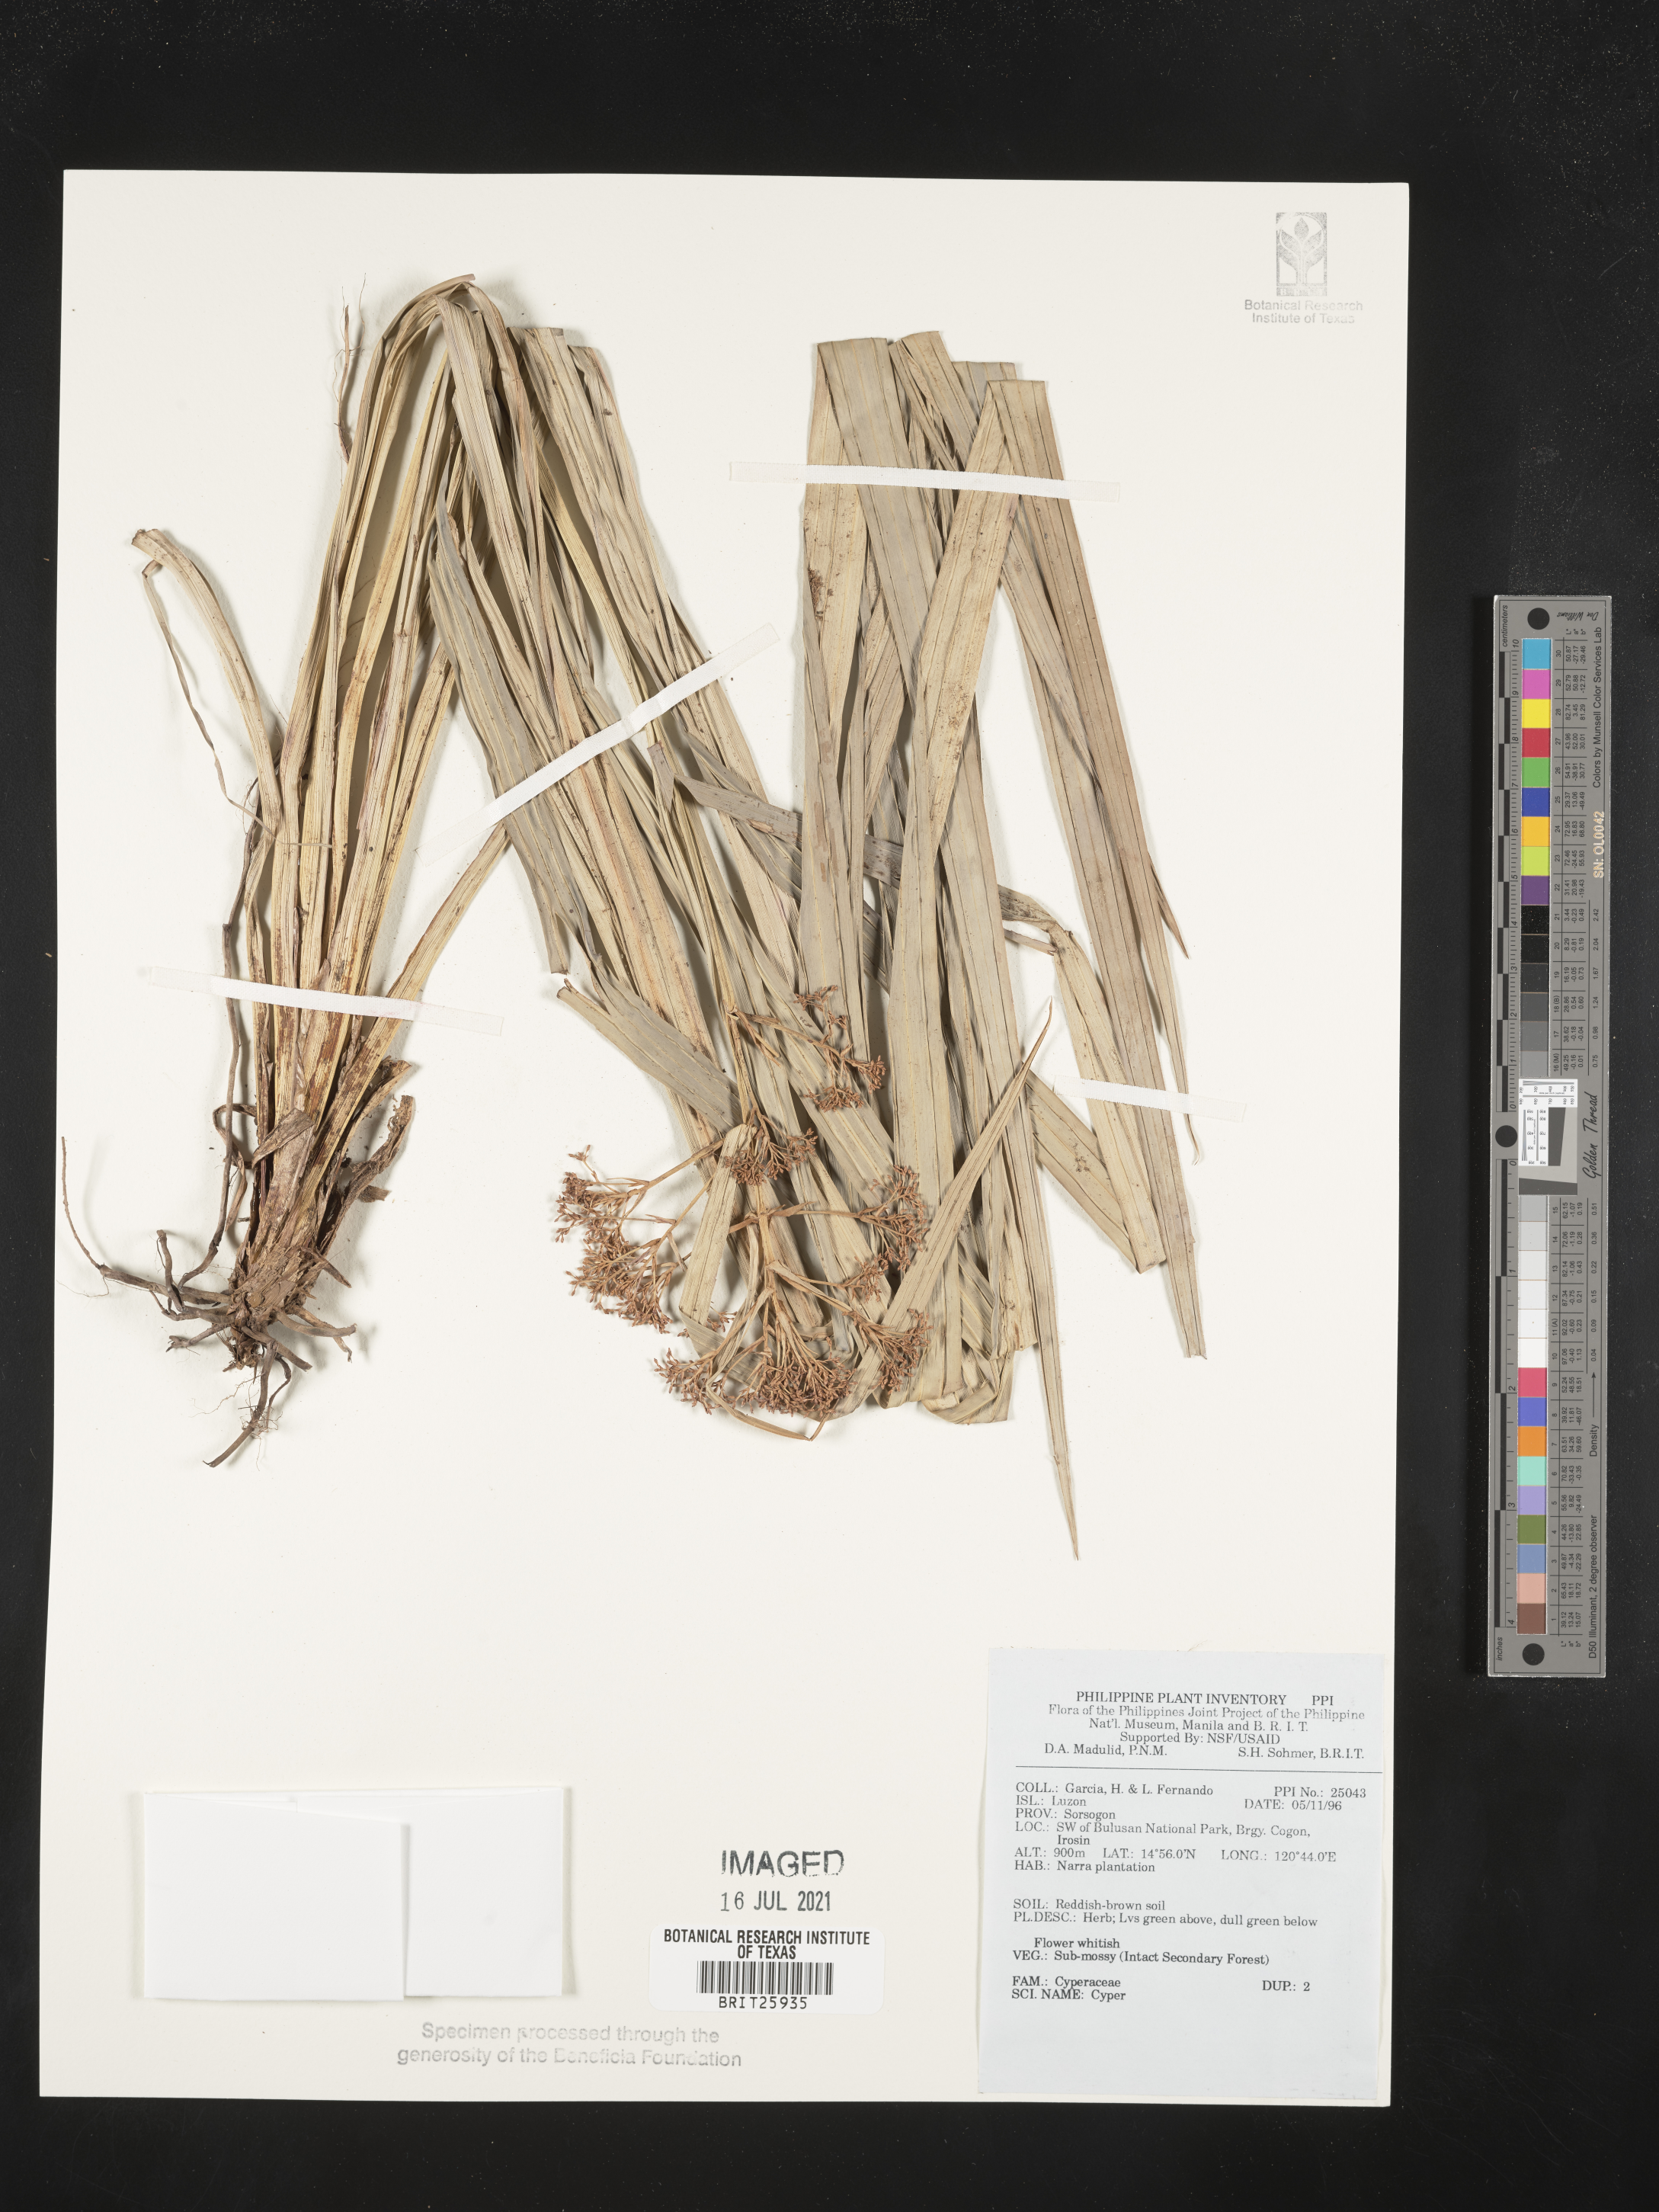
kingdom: Plantae
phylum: Tracheophyta
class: Liliopsida
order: Poales
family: Cyperaceae
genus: Cyperus
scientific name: Cyperus
